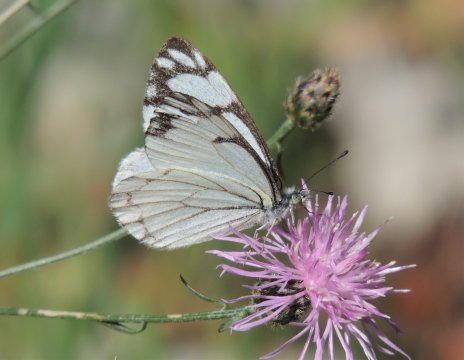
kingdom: Animalia
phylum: Arthropoda
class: Insecta
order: Lepidoptera
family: Pieridae
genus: Neophasia
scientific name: Neophasia menapia
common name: Pine White
